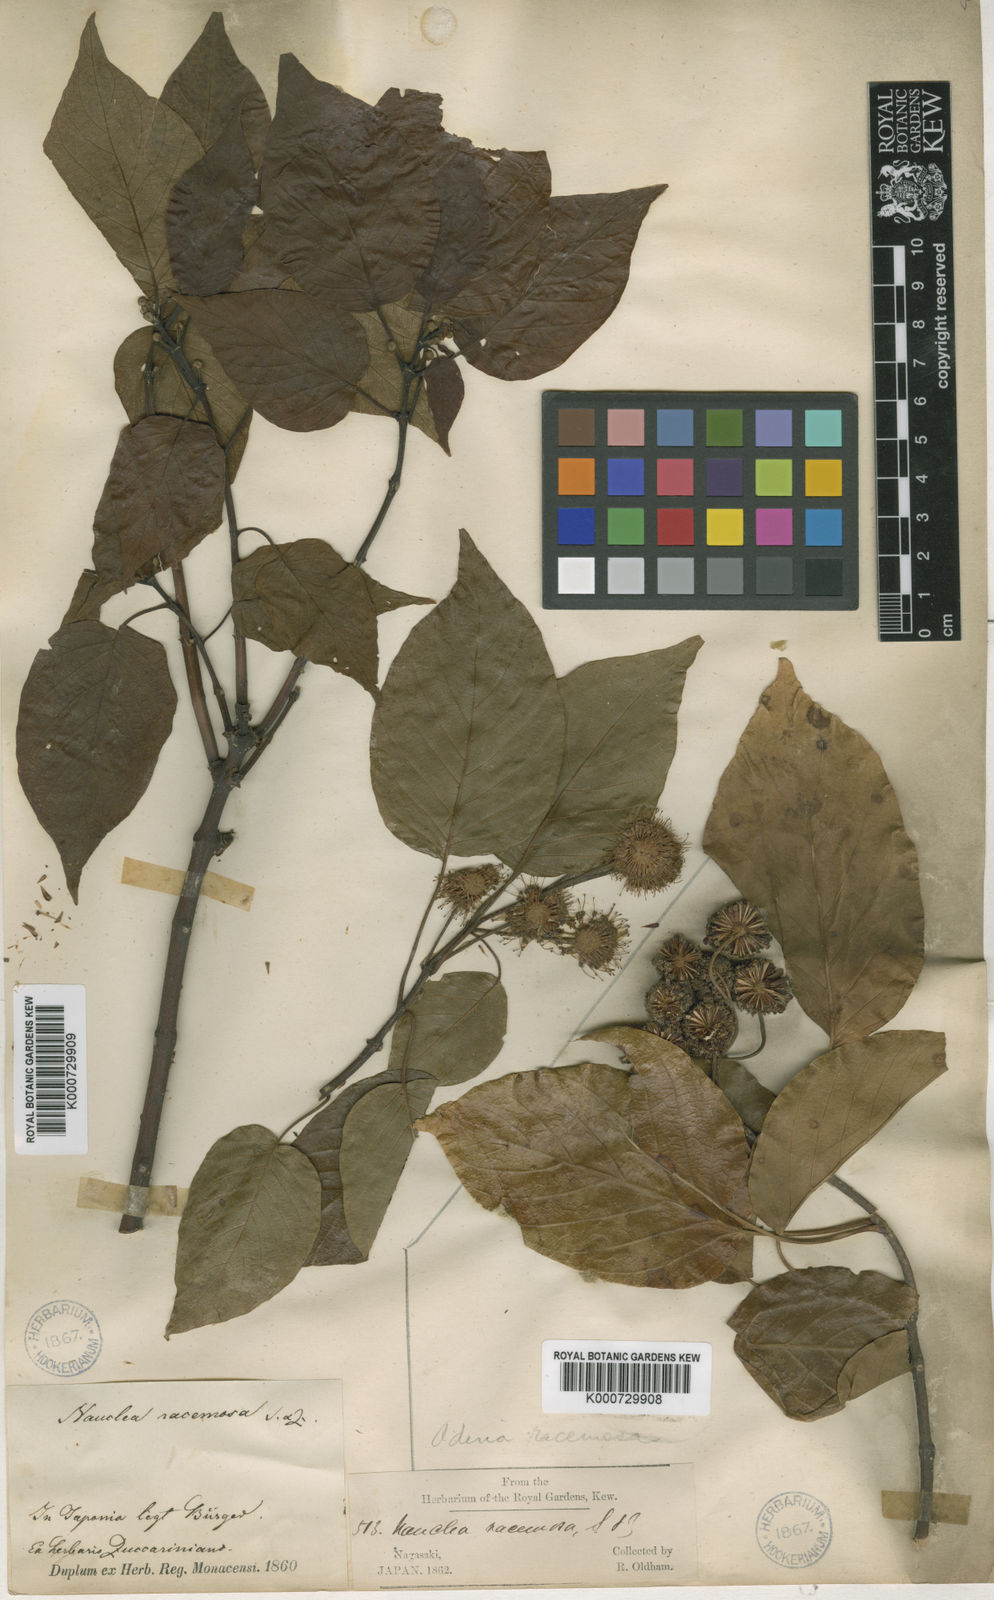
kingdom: Plantae
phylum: Tracheophyta
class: Magnoliopsida
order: Gentianales
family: Rubiaceae
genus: Adina
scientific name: Adina racemosa
